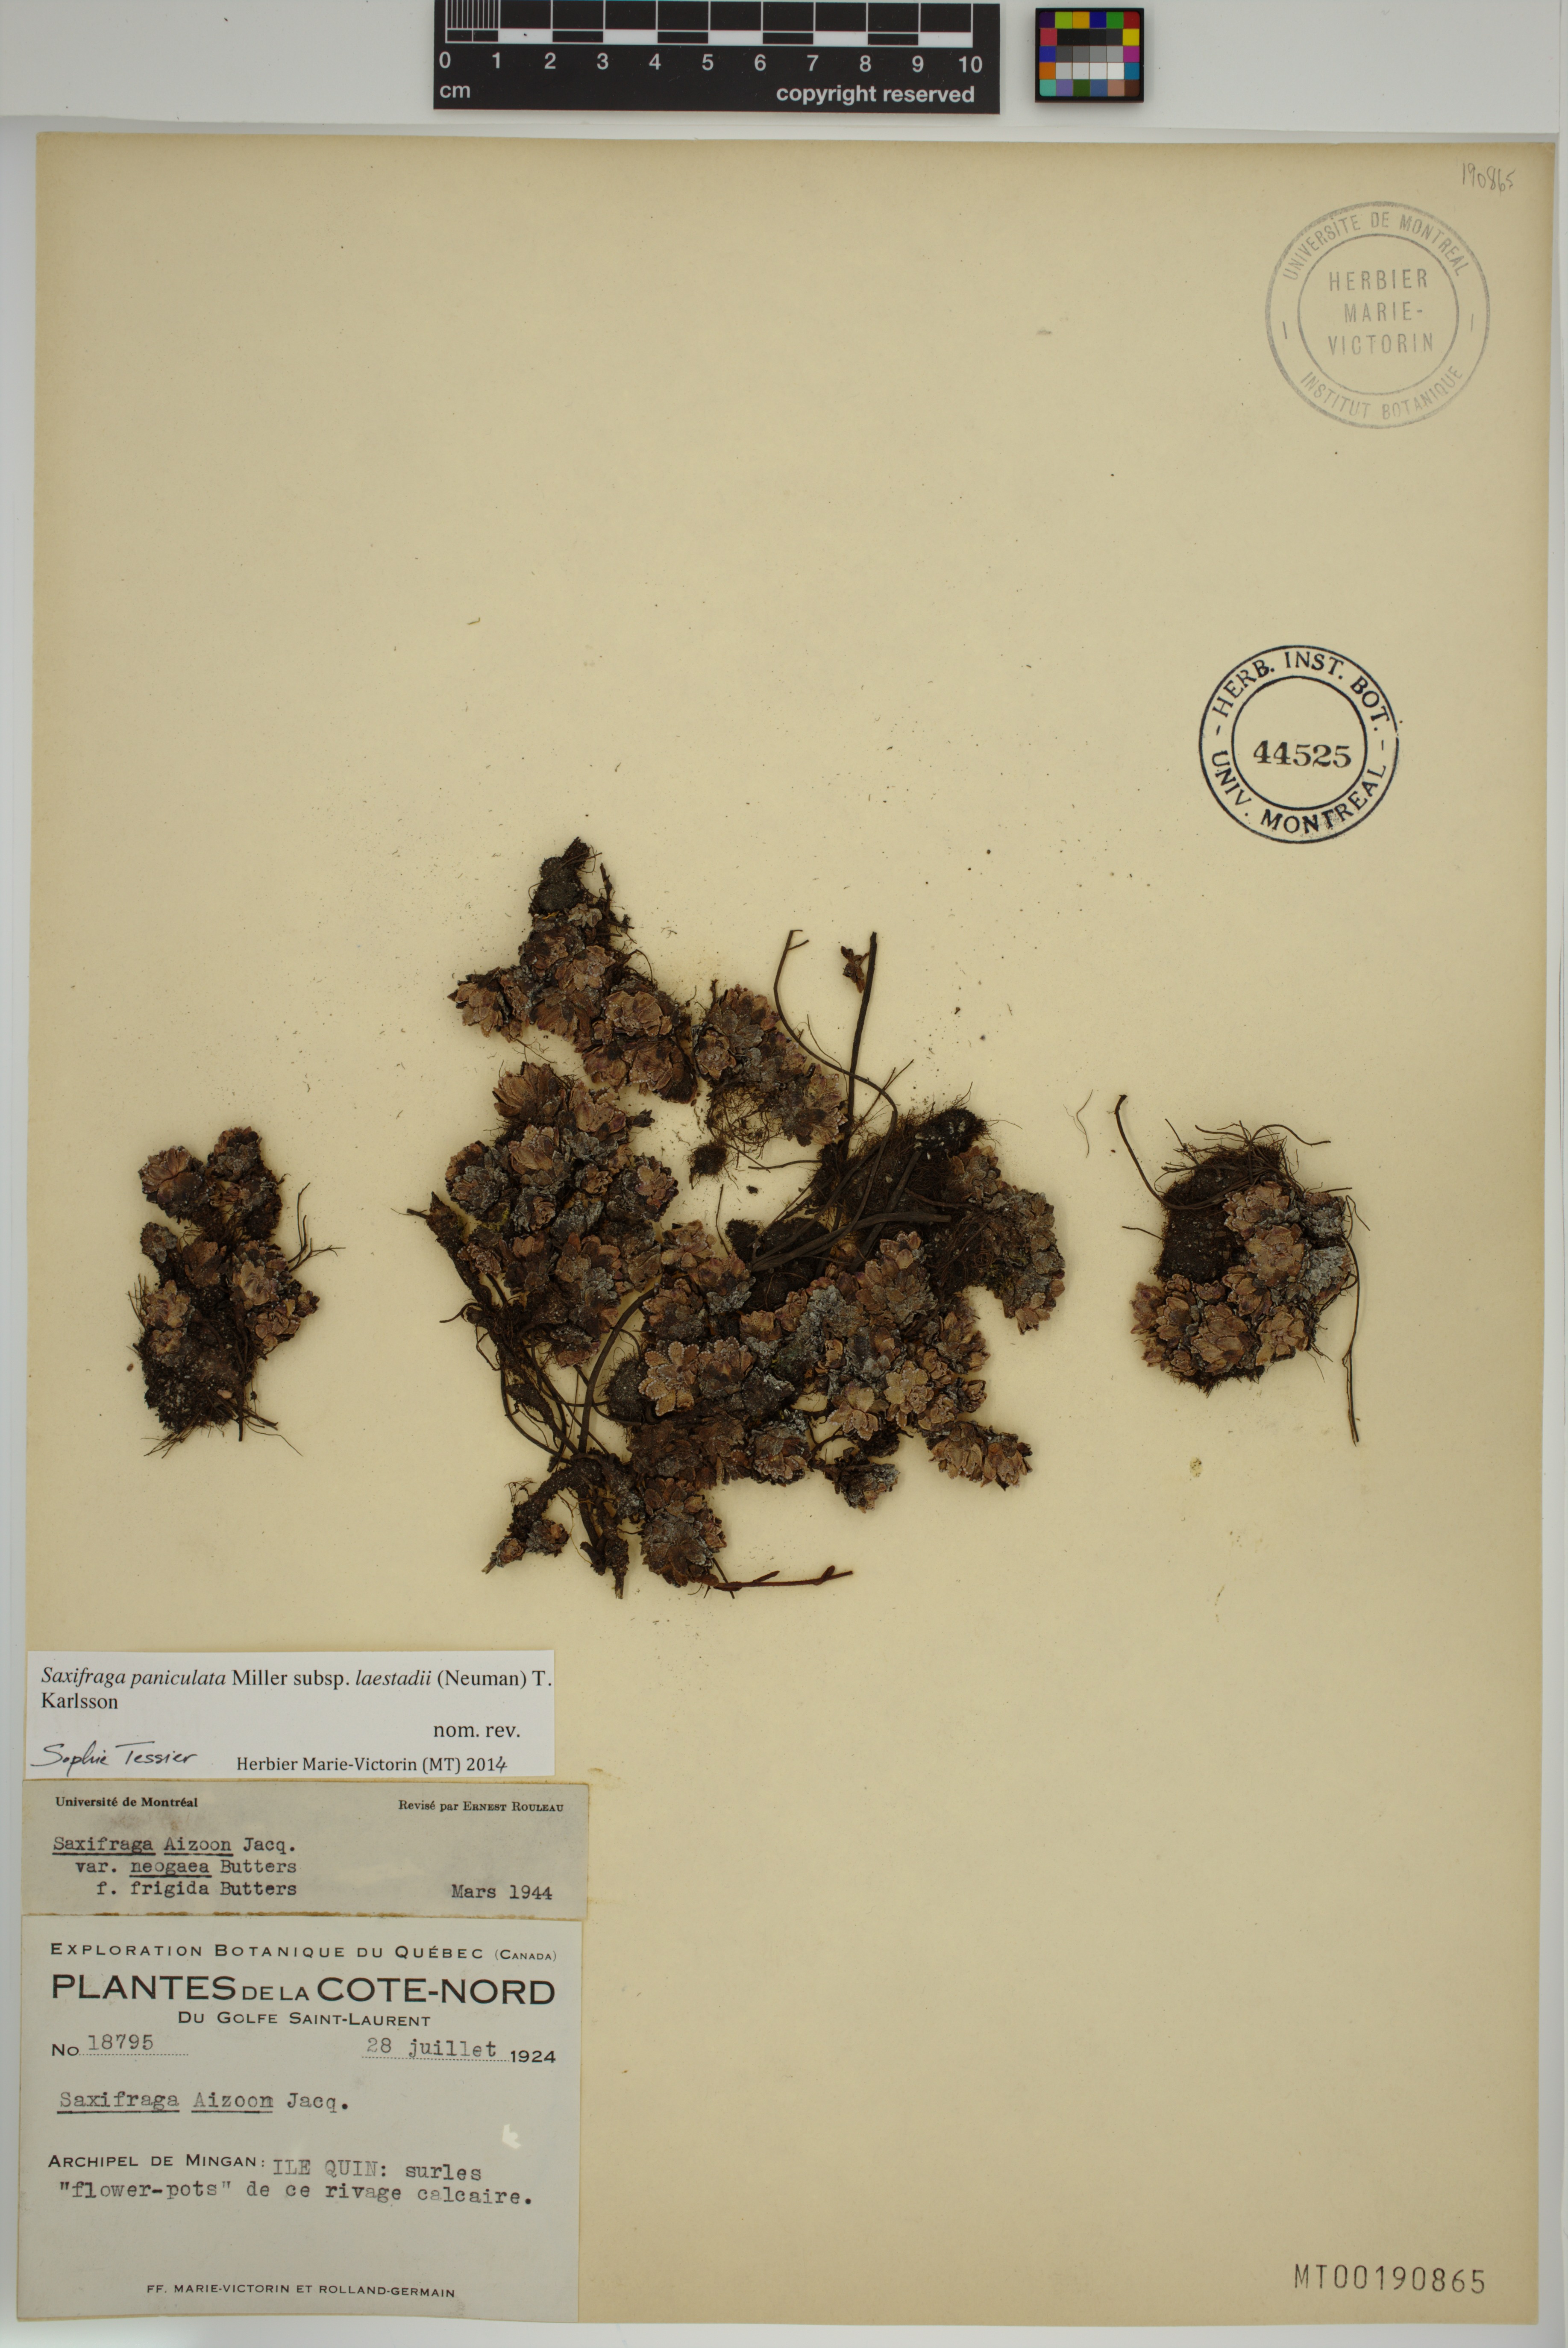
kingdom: Plantae
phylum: Tracheophyta
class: Magnoliopsida
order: Saxifragales
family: Saxifragaceae
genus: Saxifraga
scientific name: Saxifraga paniculata
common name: Livelong saxifrage
